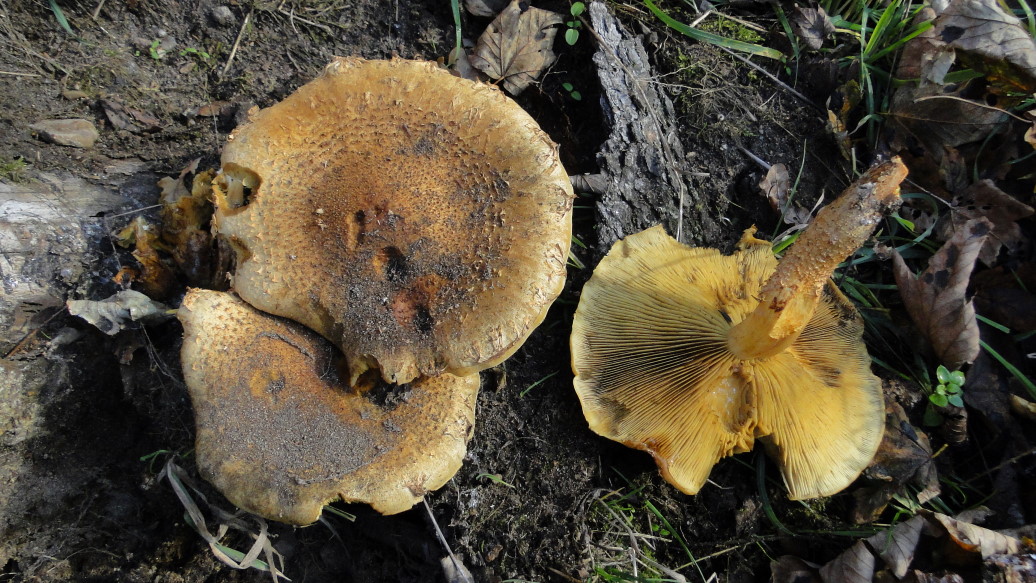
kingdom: Fungi
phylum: Basidiomycota
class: Agaricomycetes
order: Agaricales
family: Strophariaceae
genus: Pholiota
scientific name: Pholiota squarrosa
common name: krumskællet skælhat
